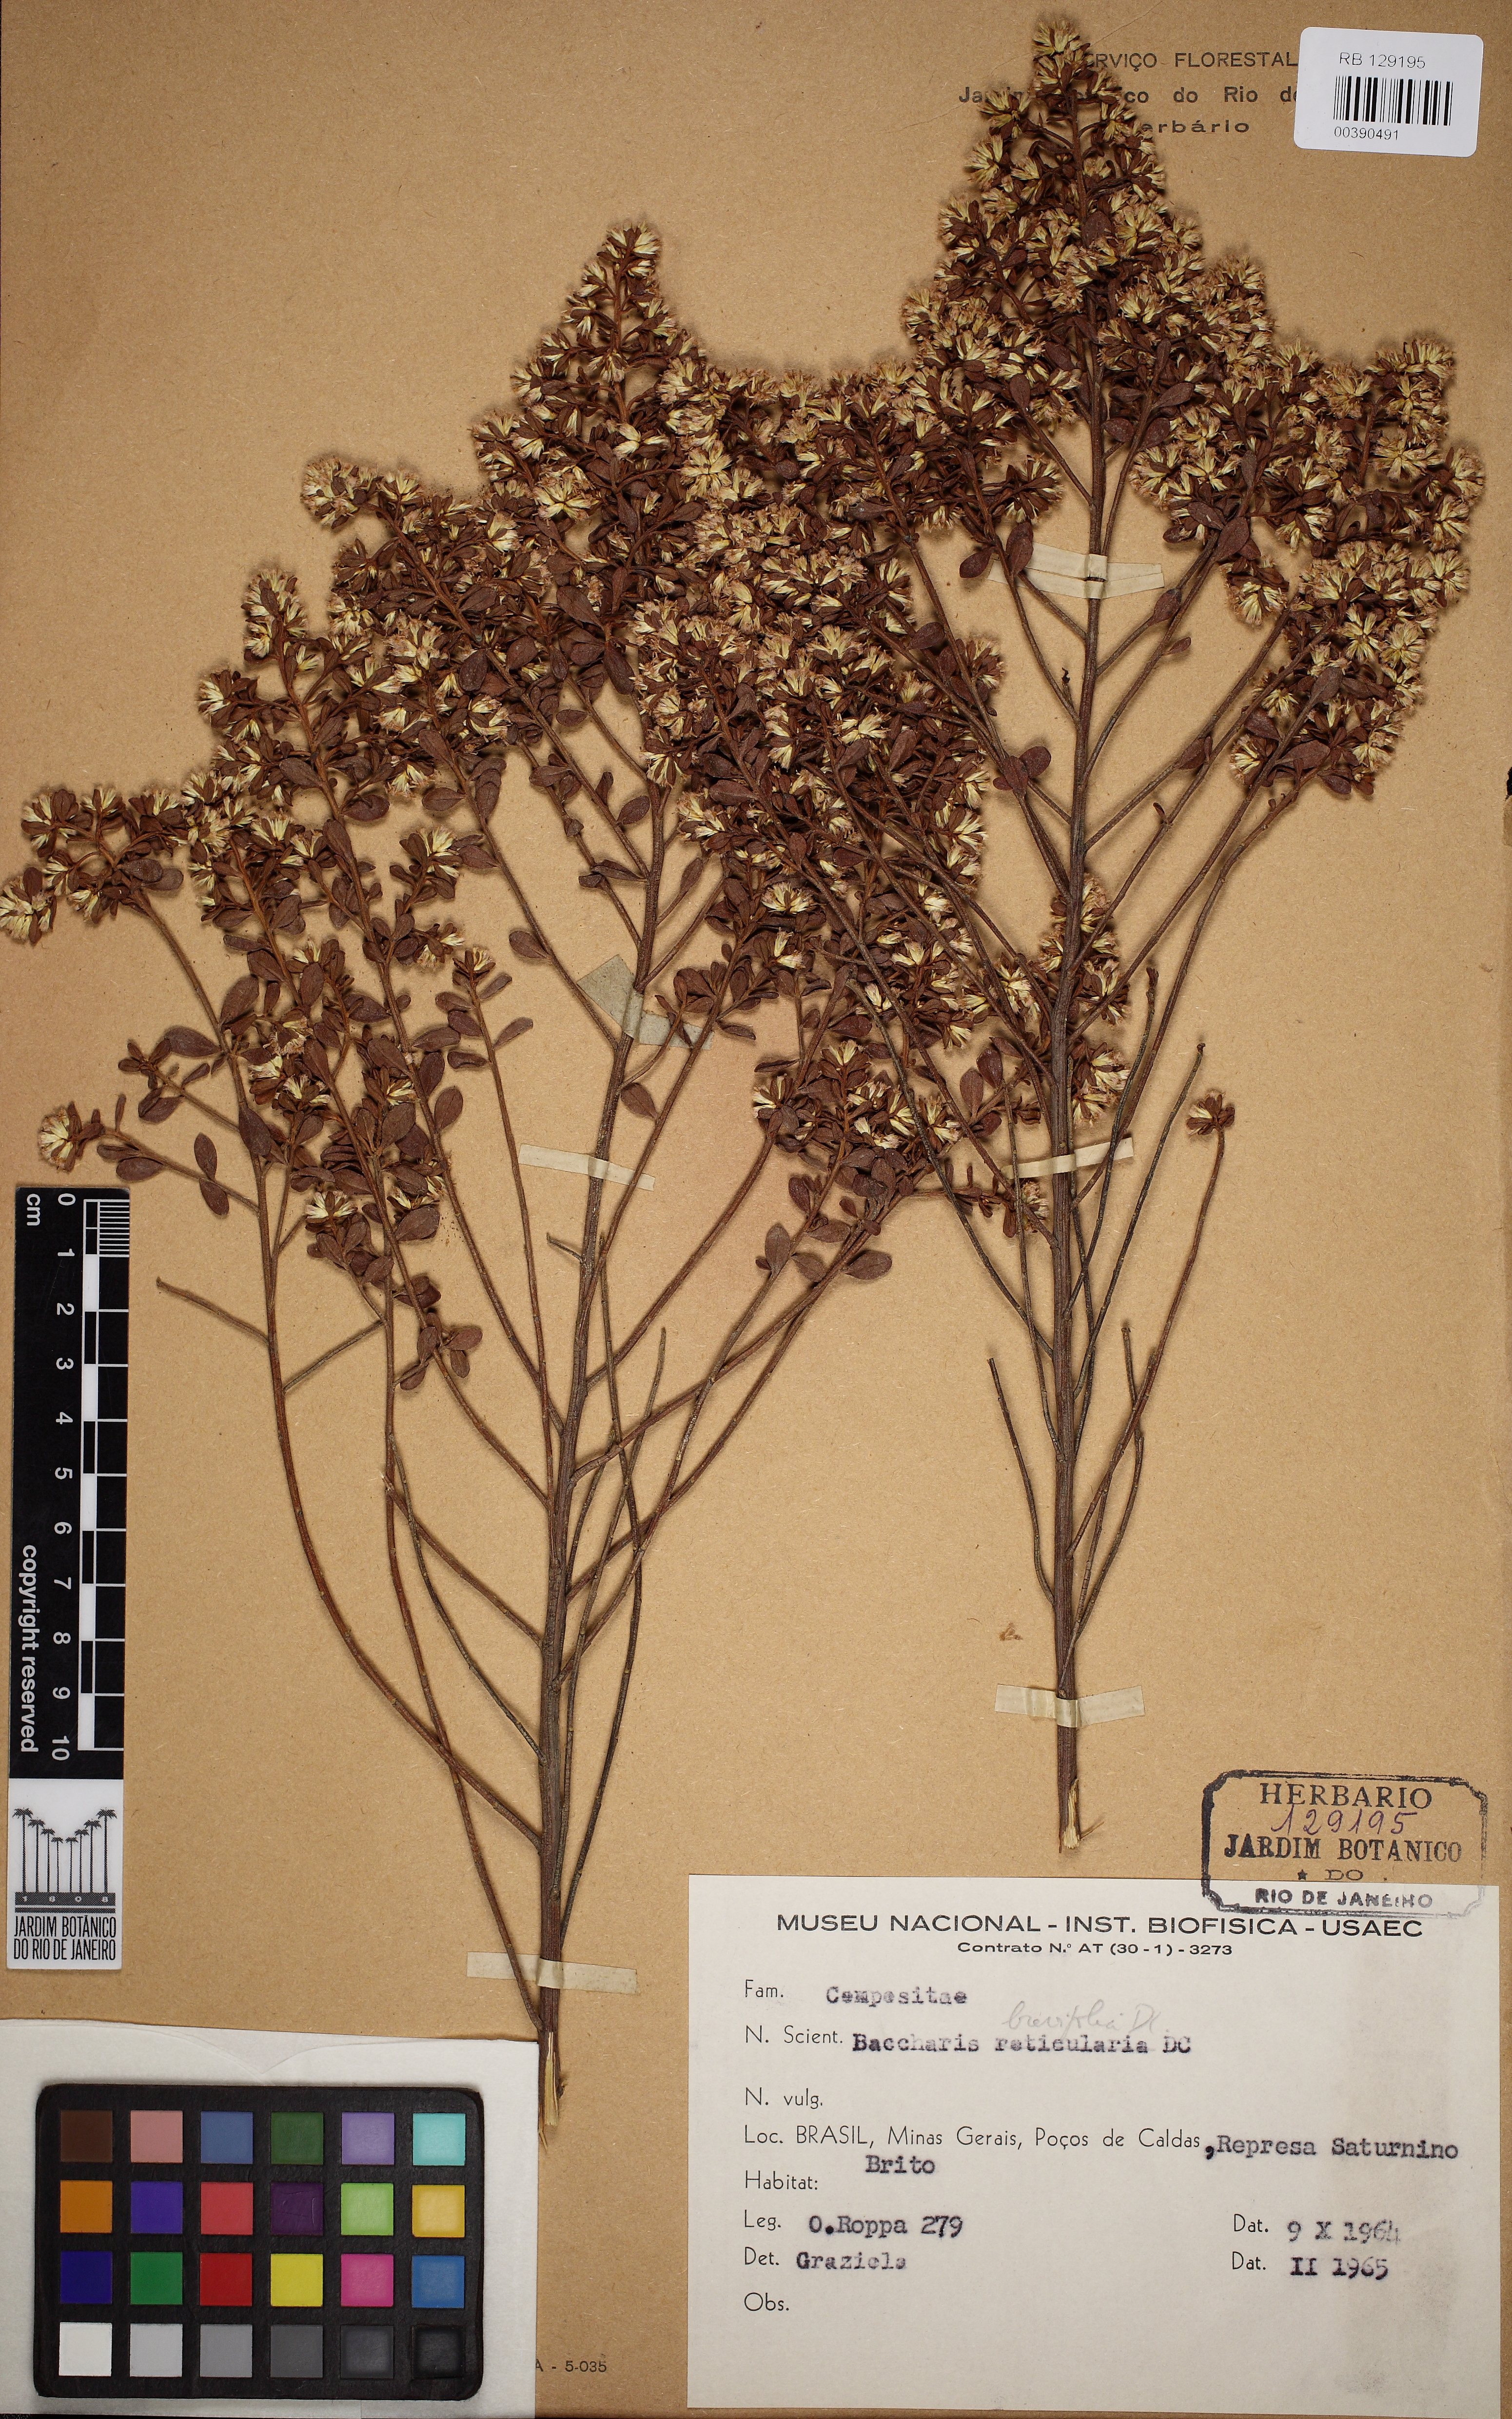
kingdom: Plantae
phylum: Tracheophyta
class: Magnoliopsida
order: Asterales
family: Asteraceae
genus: Baccharis
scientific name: Baccharis brevifolia
